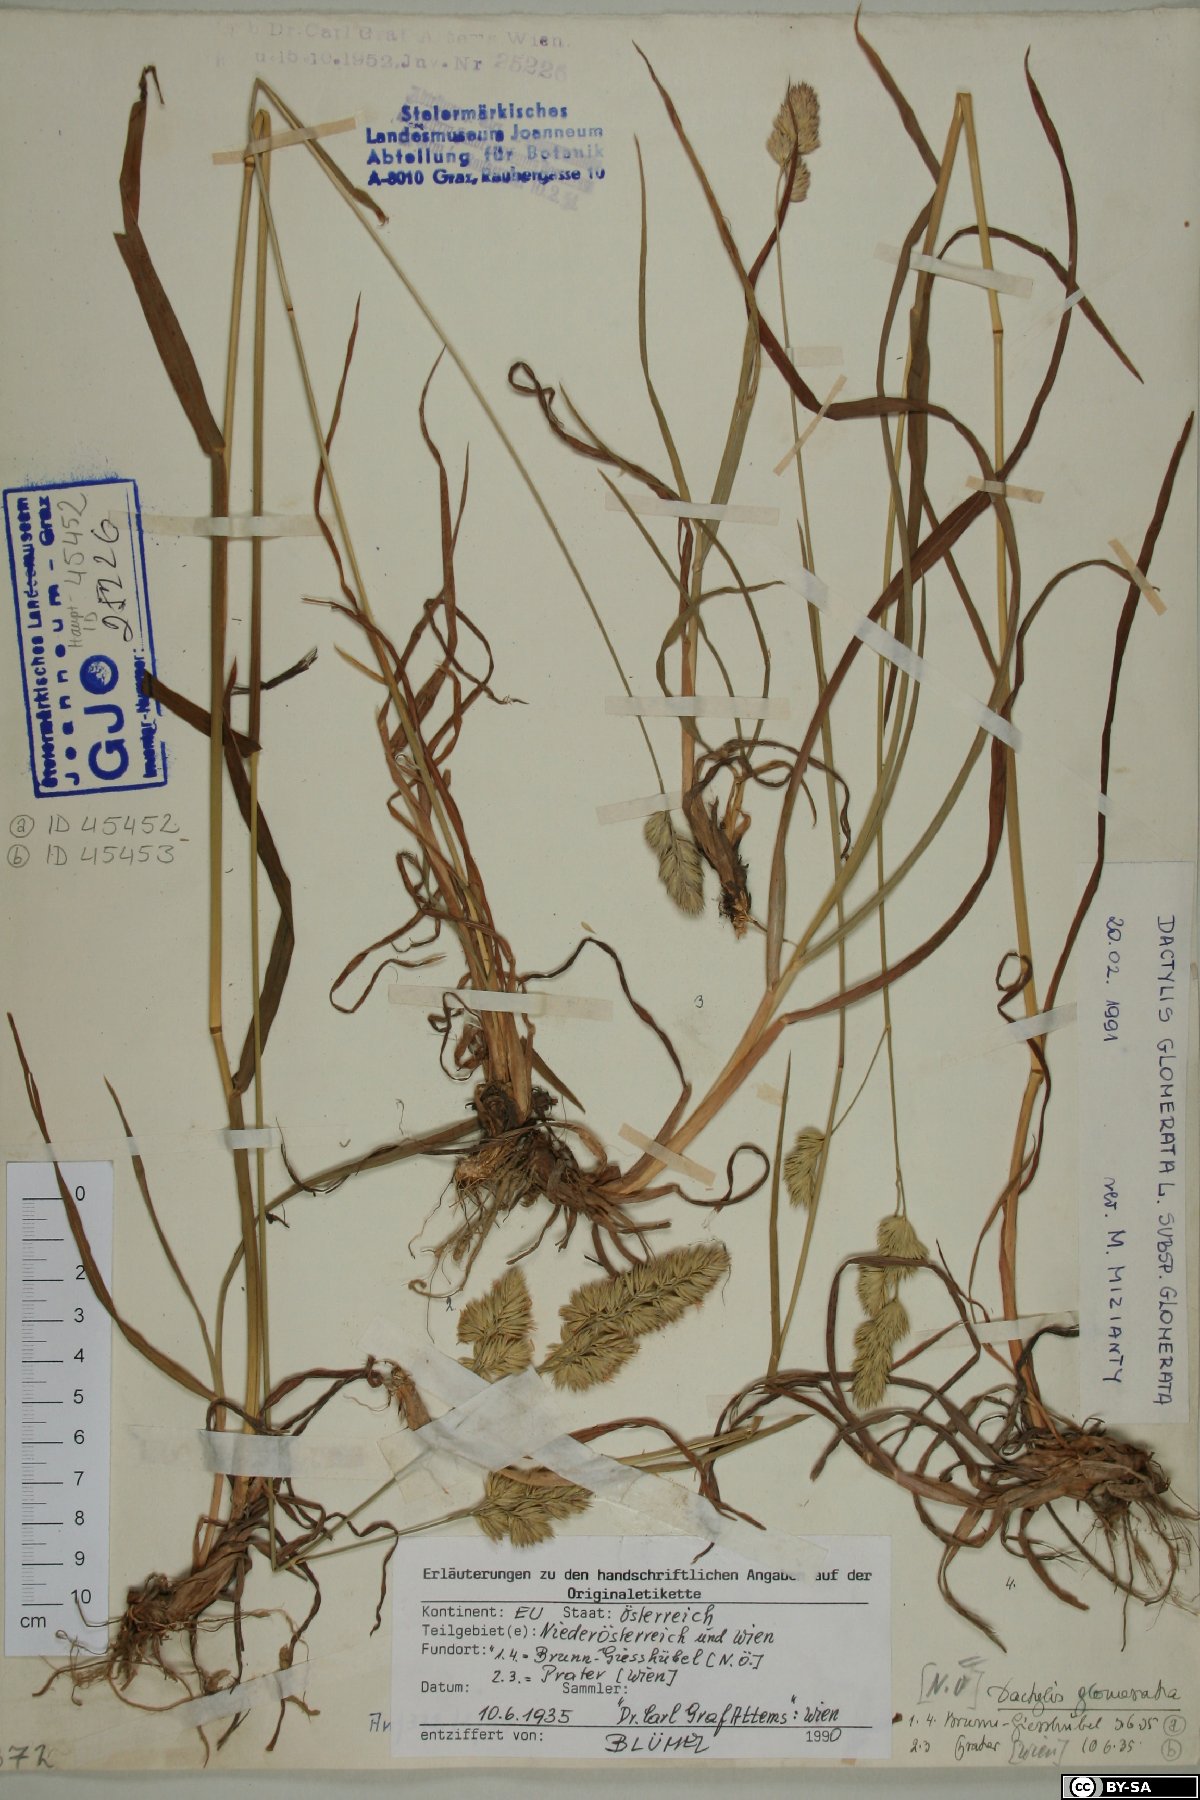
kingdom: Plantae
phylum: Tracheophyta
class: Liliopsida
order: Poales
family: Poaceae
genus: Dactylis
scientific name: Dactylis glomerata
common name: Orchardgrass
